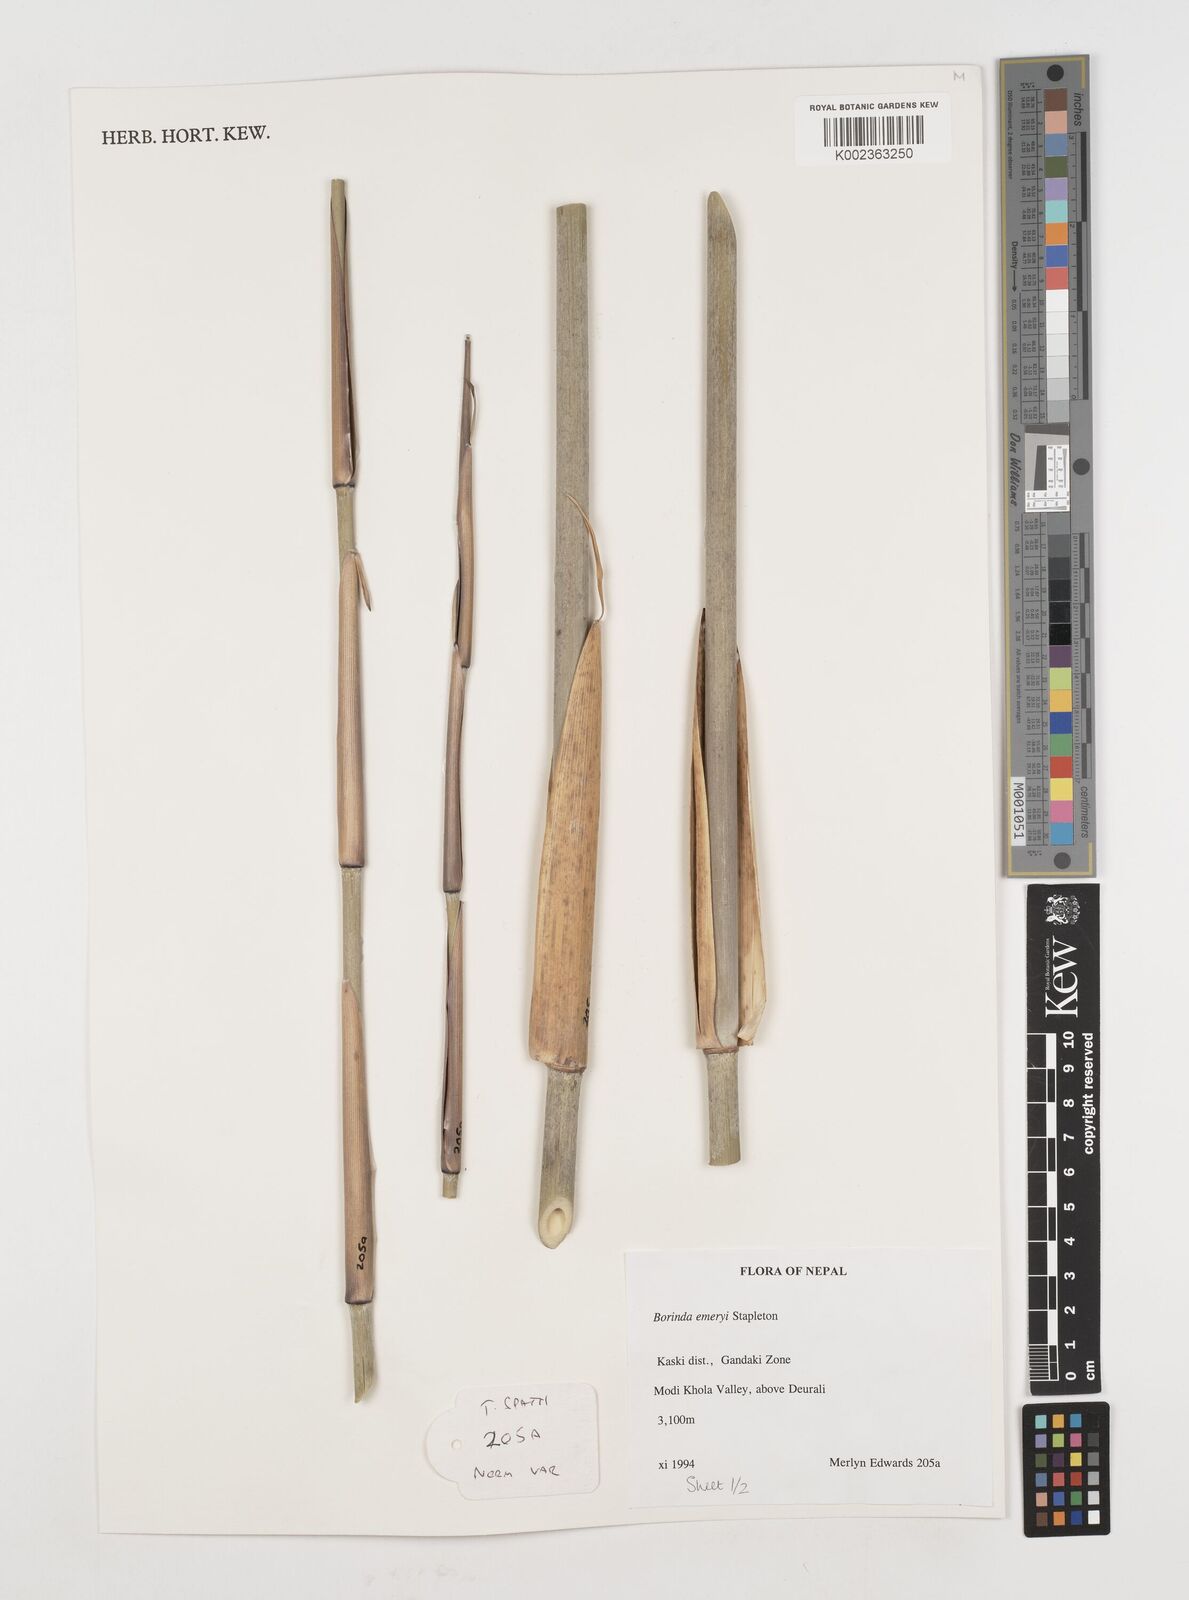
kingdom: Plantae
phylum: Tracheophyta
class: Liliopsida
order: Poales
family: Poaceae
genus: Fargesia
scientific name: Fargesia
